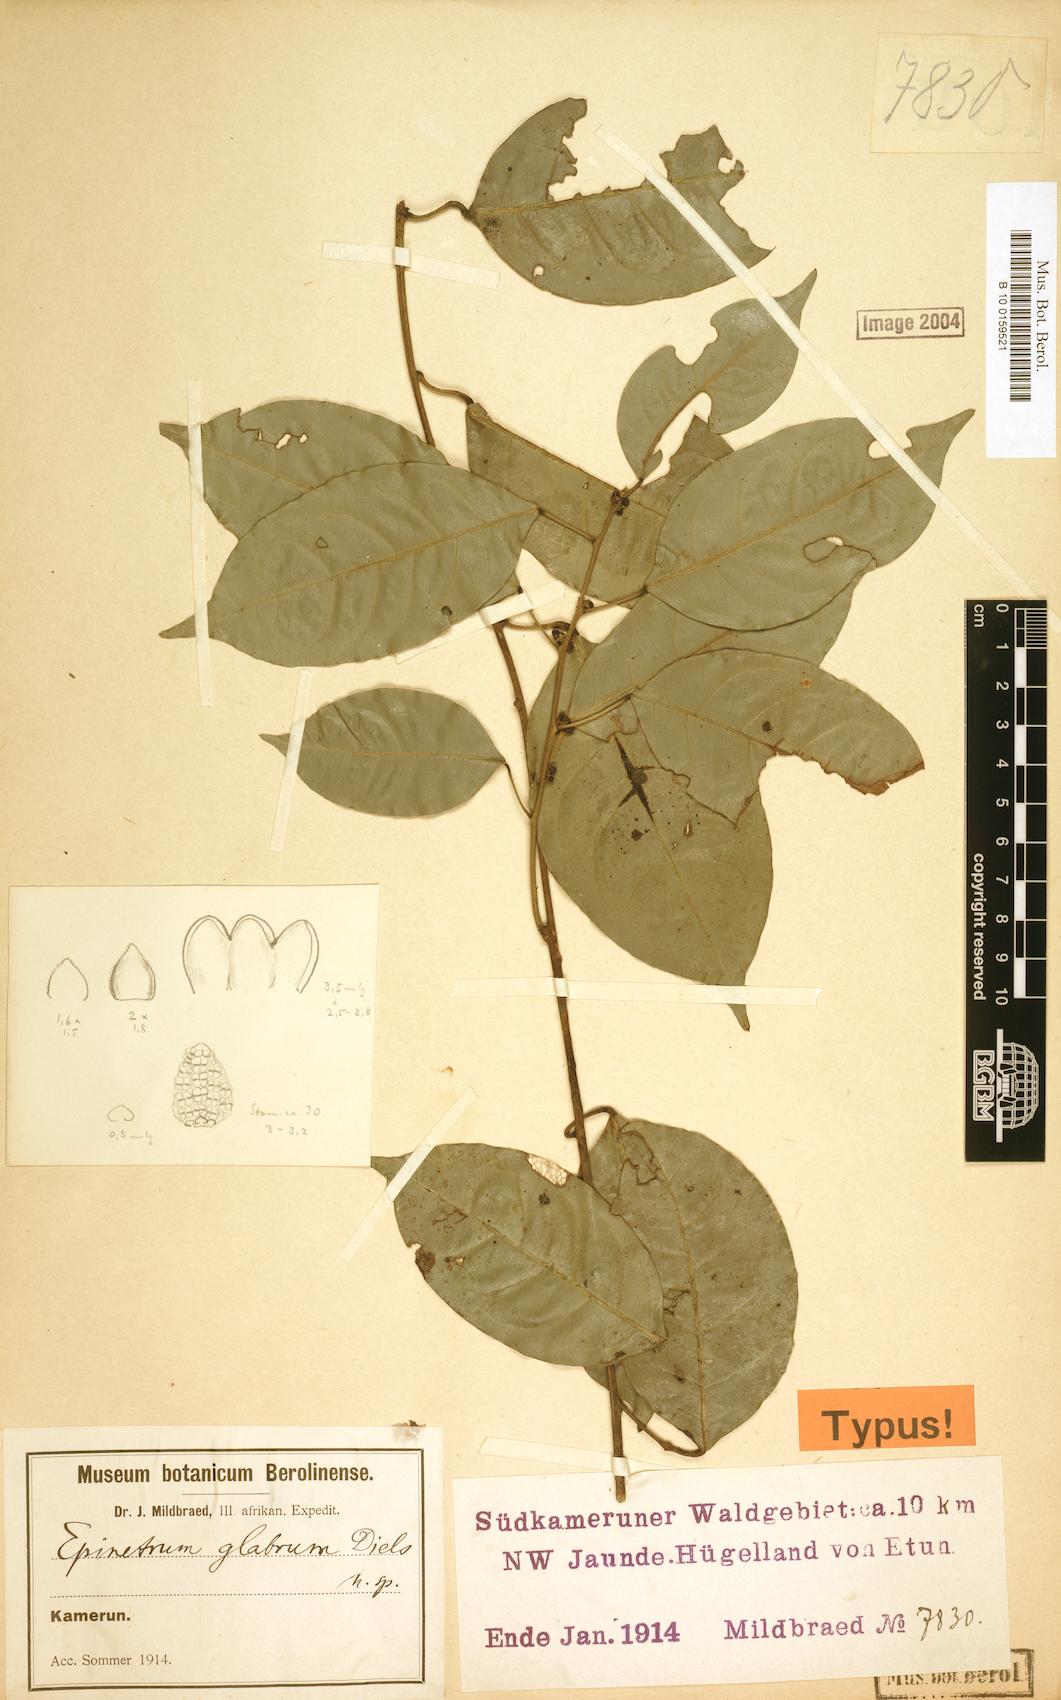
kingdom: Plantae
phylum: Tracheophyta
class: Magnoliopsida
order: Ranunculales
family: Menispermaceae
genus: Albertisia
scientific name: Albertisia glabra
